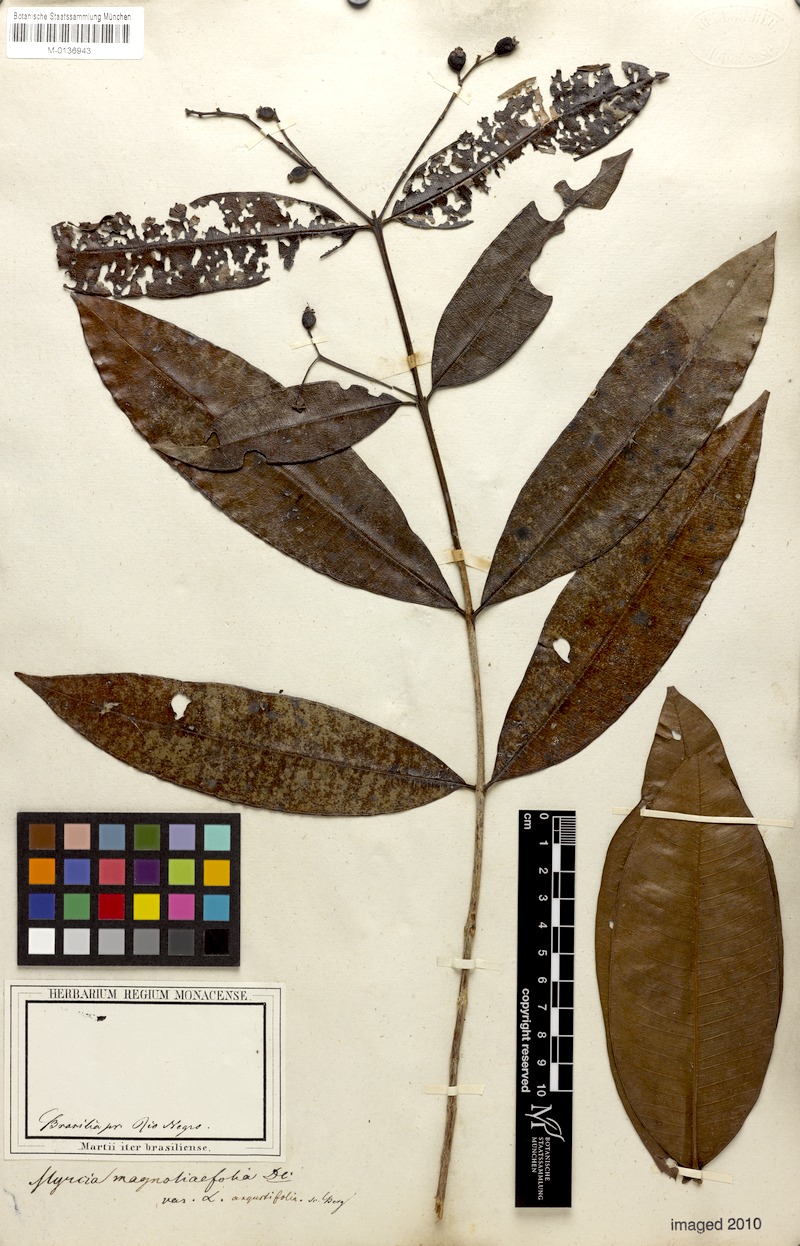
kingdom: Plantae
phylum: Tracheophyta
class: Magnoliopsida
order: Myrtales
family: Myrtaceae
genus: Myrcia
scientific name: Myrcia splendens
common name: Surinam cherry
